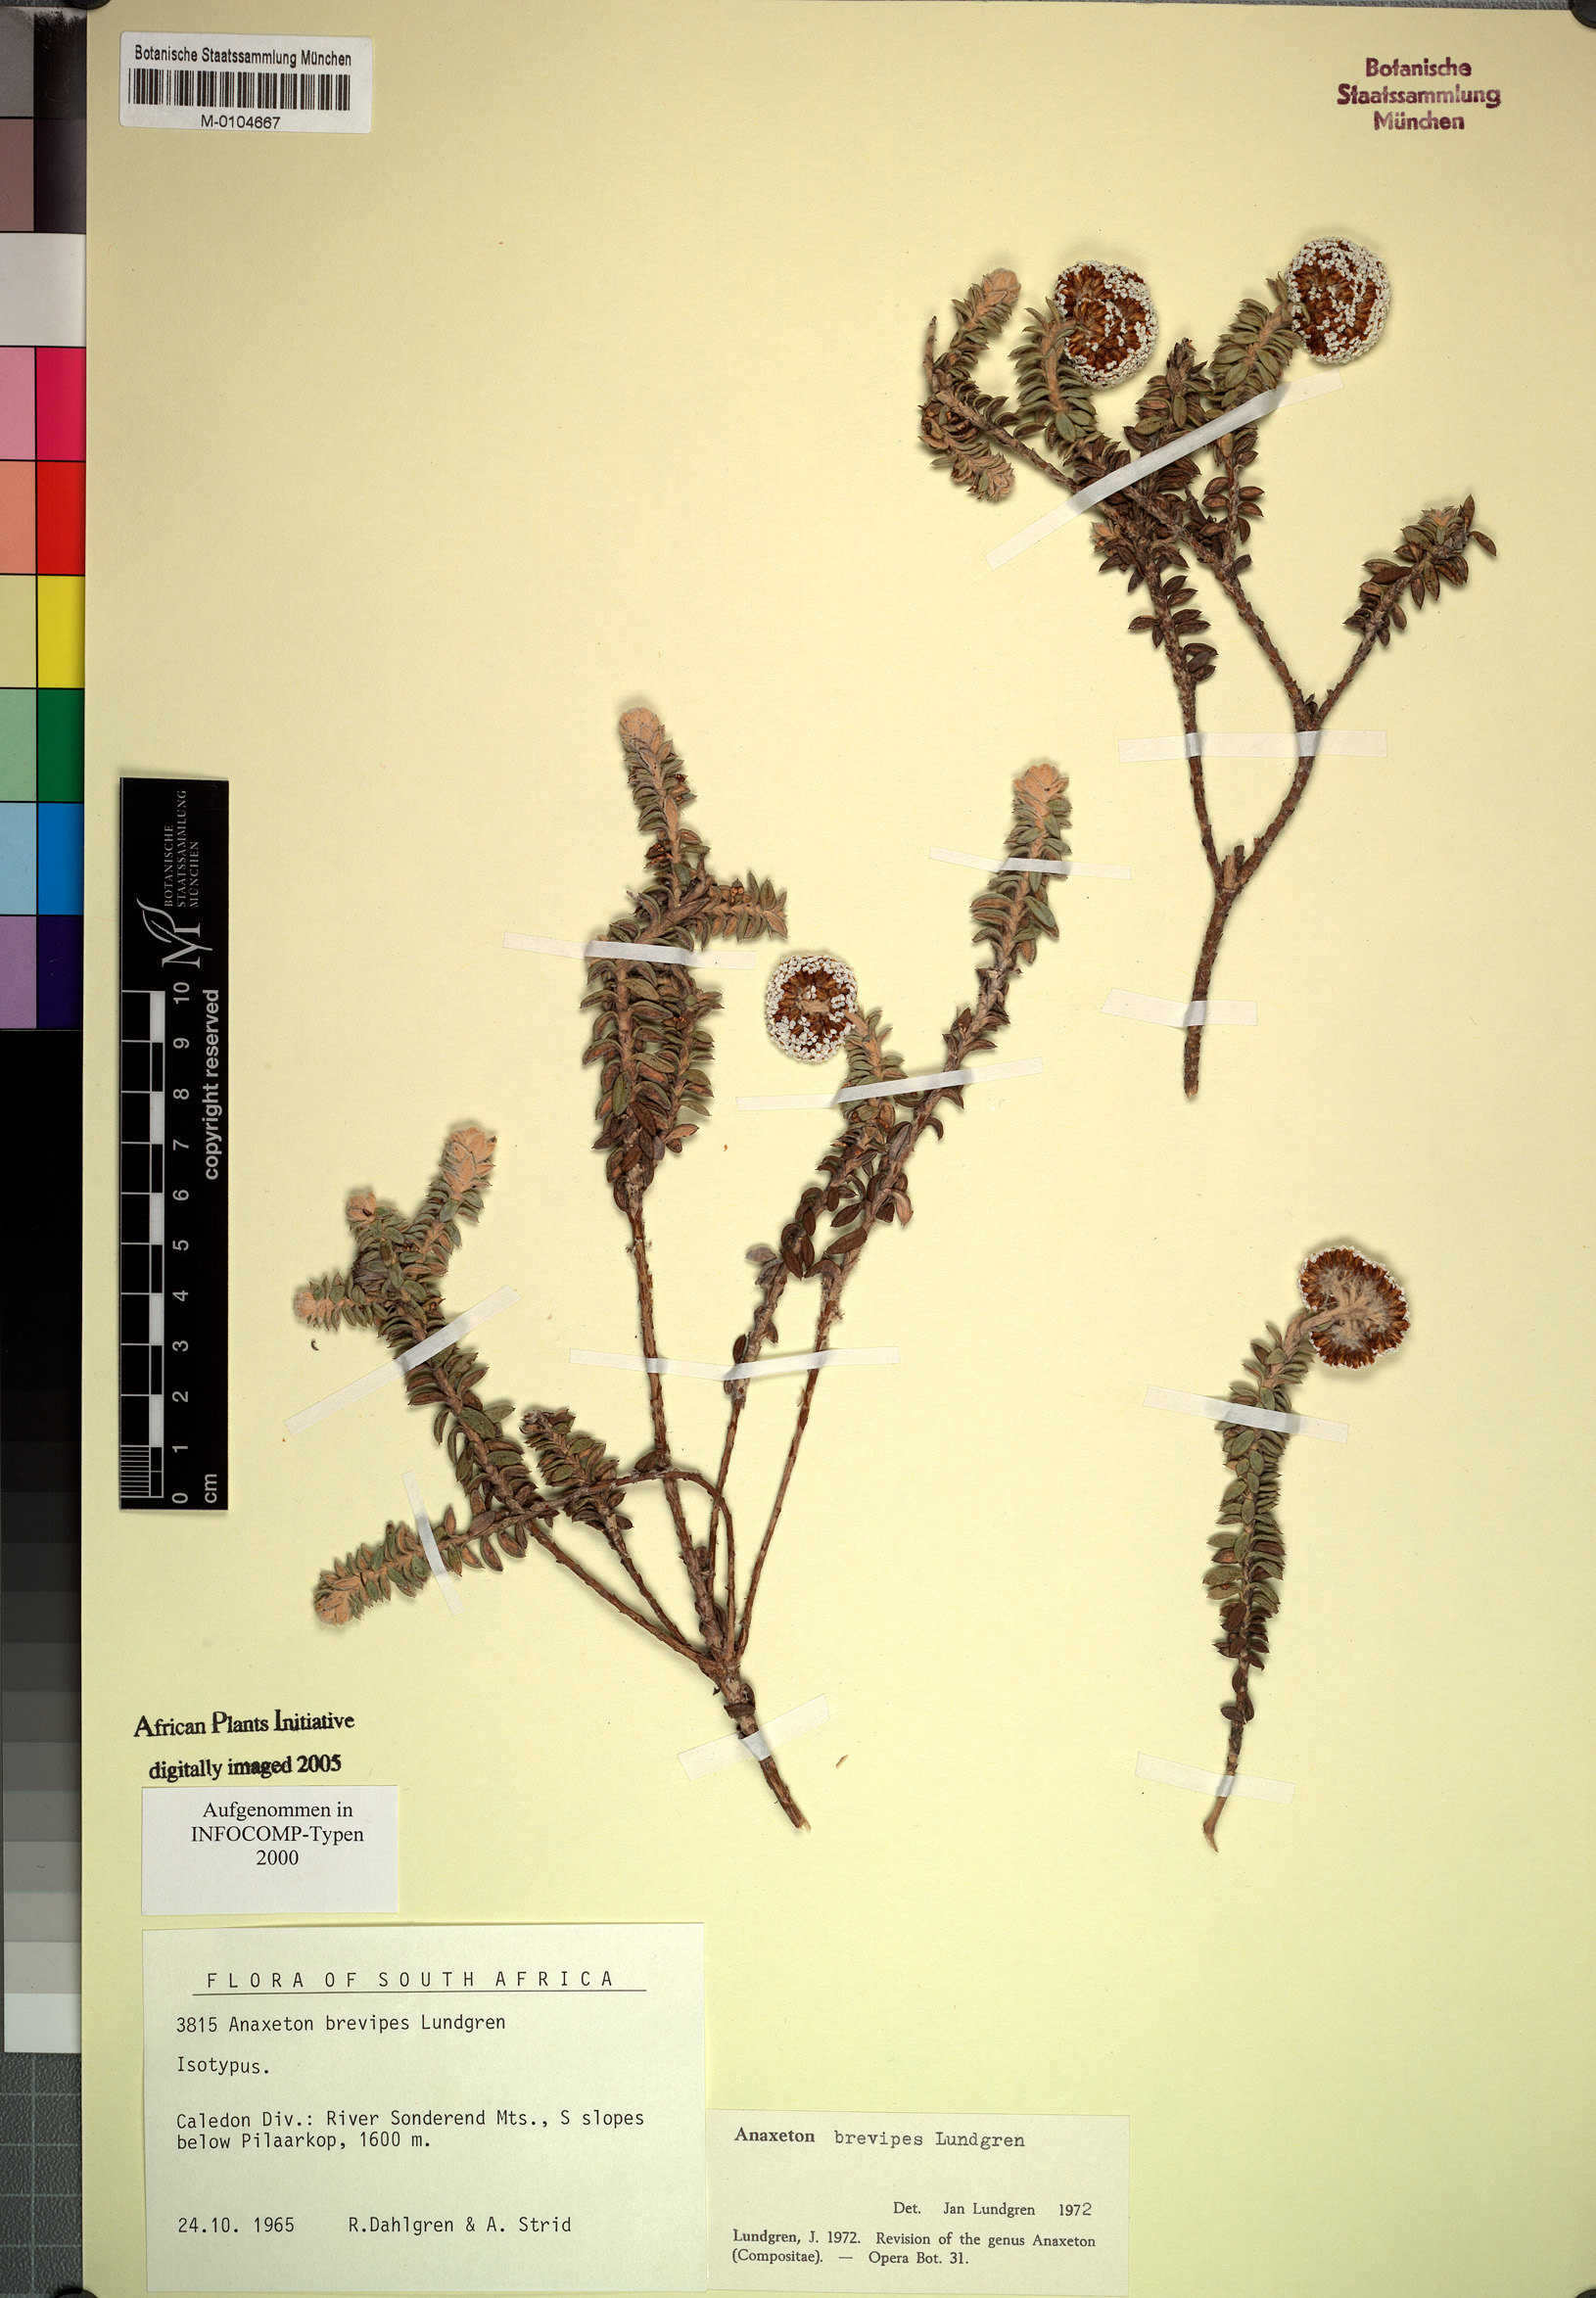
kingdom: Plantae
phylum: Tracheophyta
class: Magnoliopsida
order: Asterales
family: Asteraceae
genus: Anaxeton
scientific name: Anaxeton brevipes
